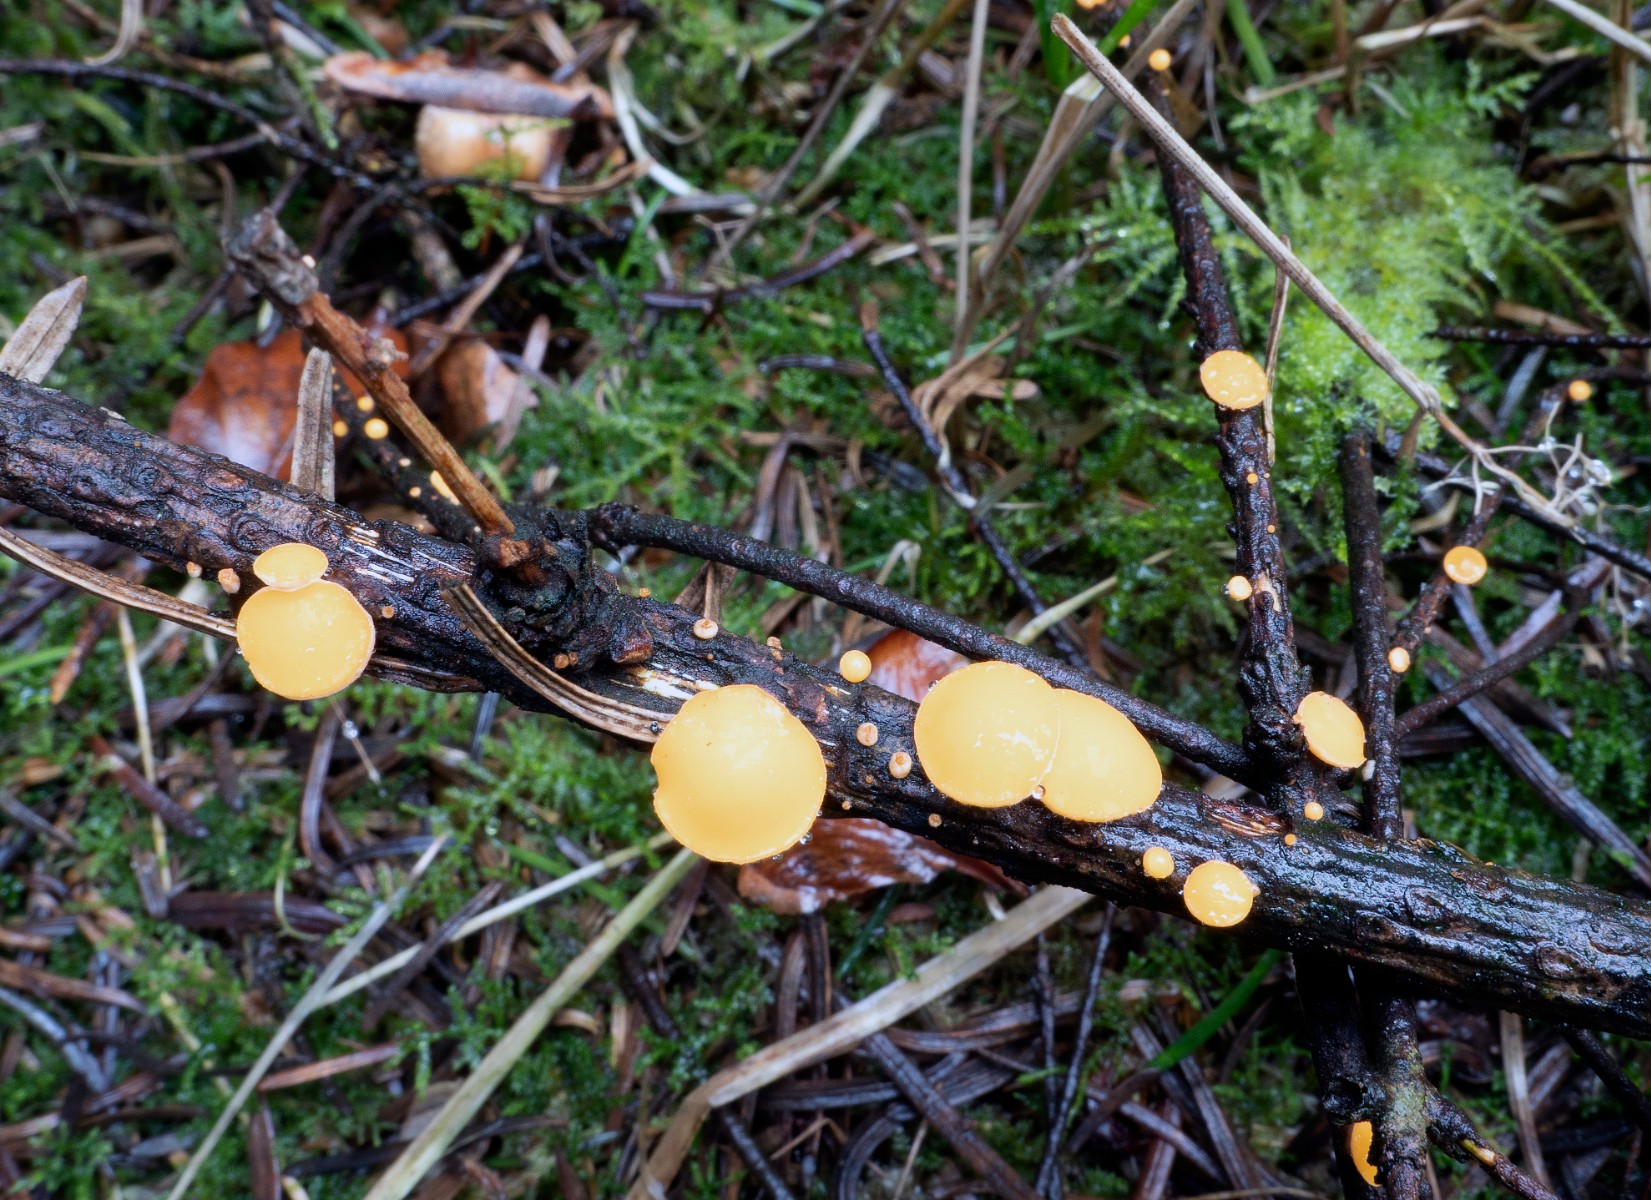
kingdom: Fungi
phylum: Ascomycota
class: Pezizomycetes
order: Pezizales
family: Sarcoscyphaceae
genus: Pithya
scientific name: Pithya vulgaris
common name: stor dukatbæger
